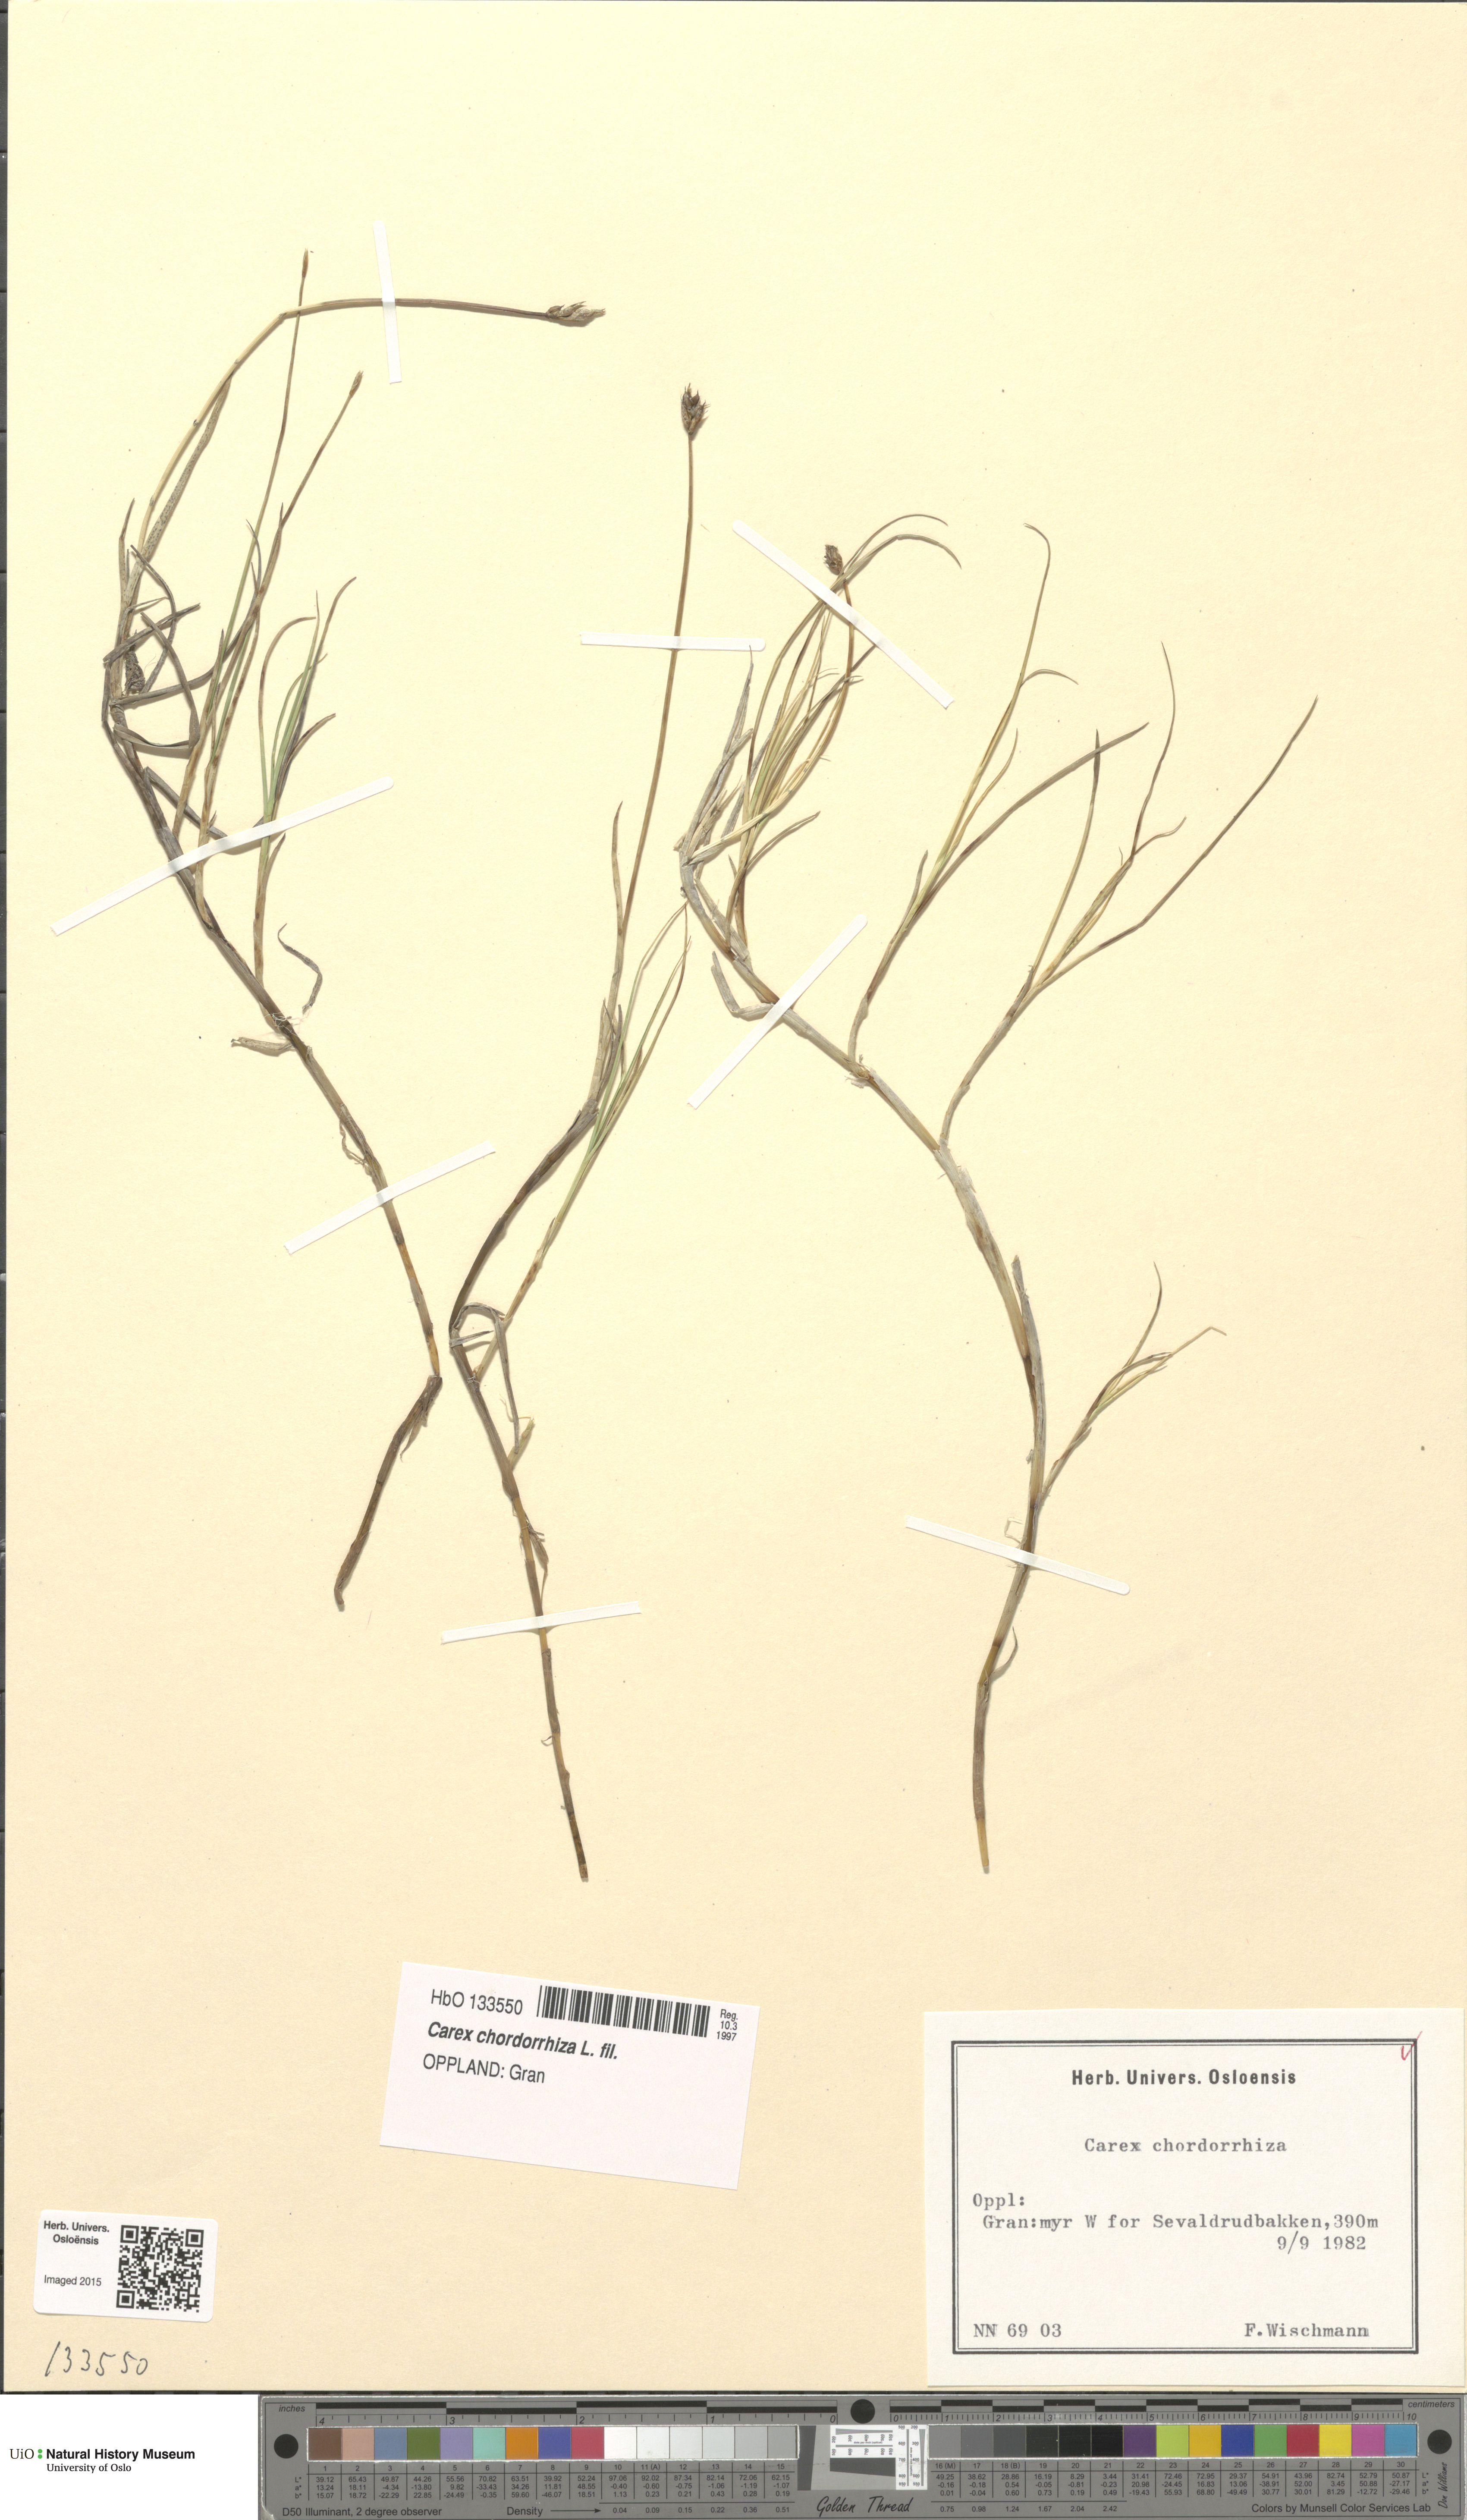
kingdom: Plantae
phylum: Tracheophyta
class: Liliopsida
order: Poales
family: Cyperaceae
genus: Carex
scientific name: Carex chordorrhiza
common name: String sedge
